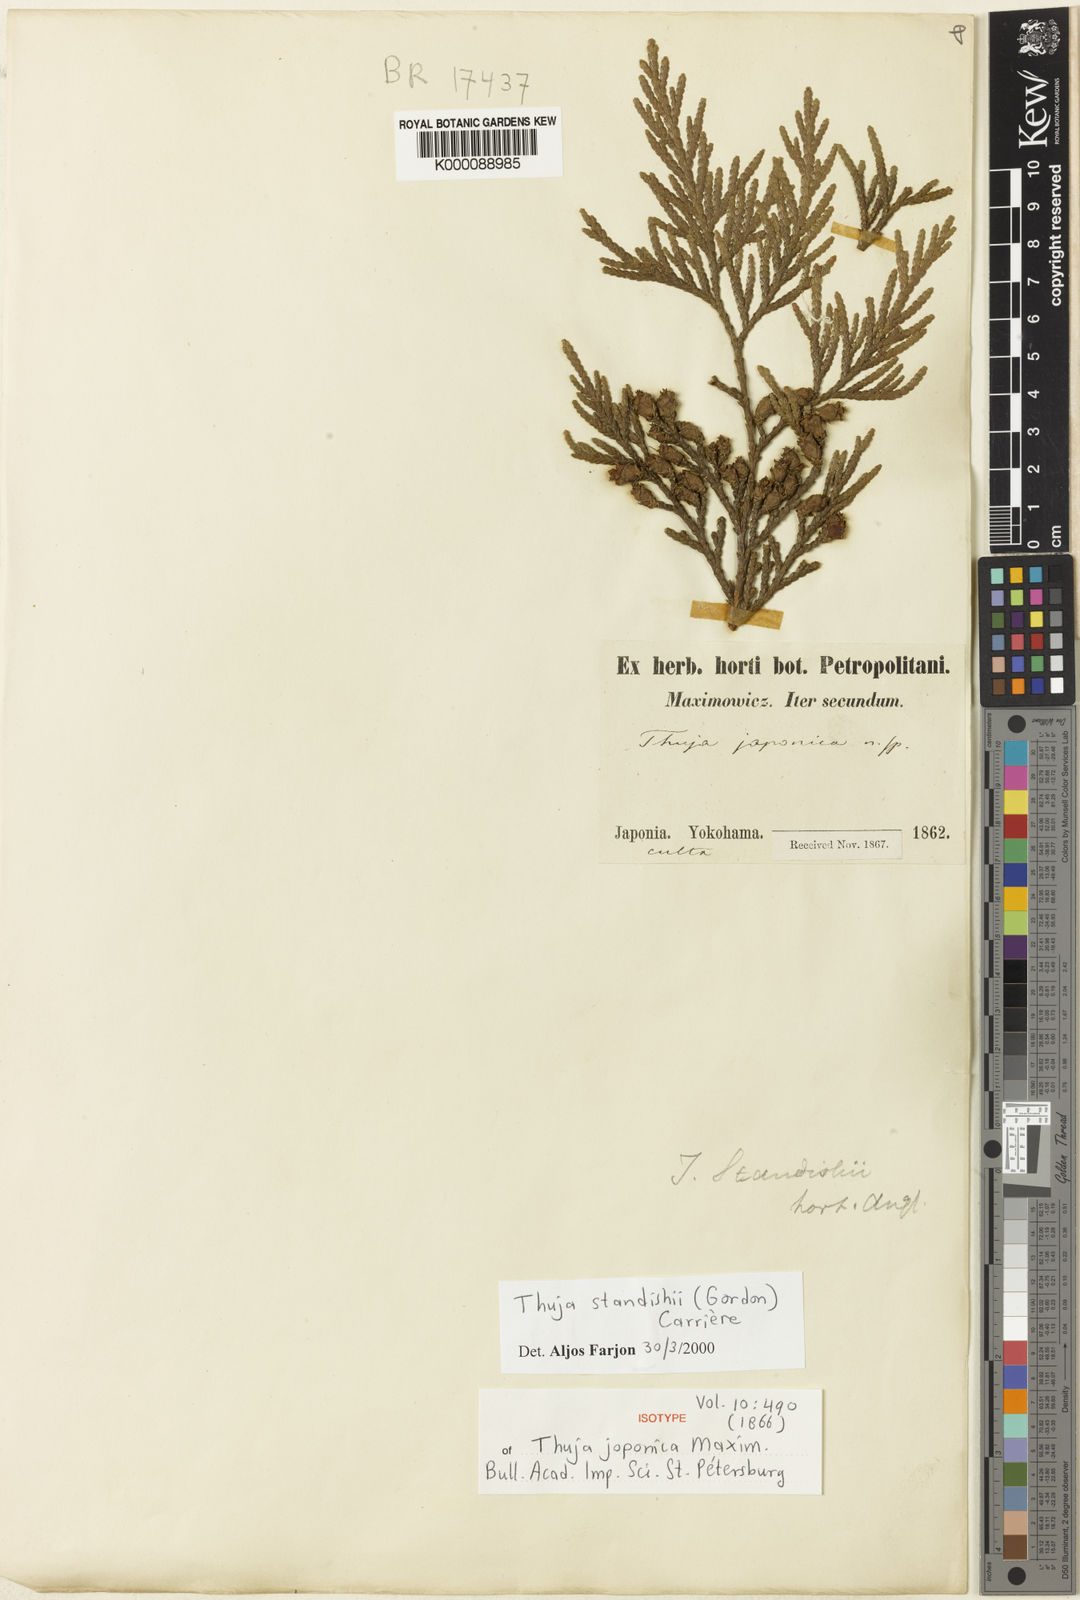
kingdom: Plantae
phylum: Tracheophyta
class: Pinopsida
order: Pinales
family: Cupressaceae
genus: Thuja
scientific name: Thuja
